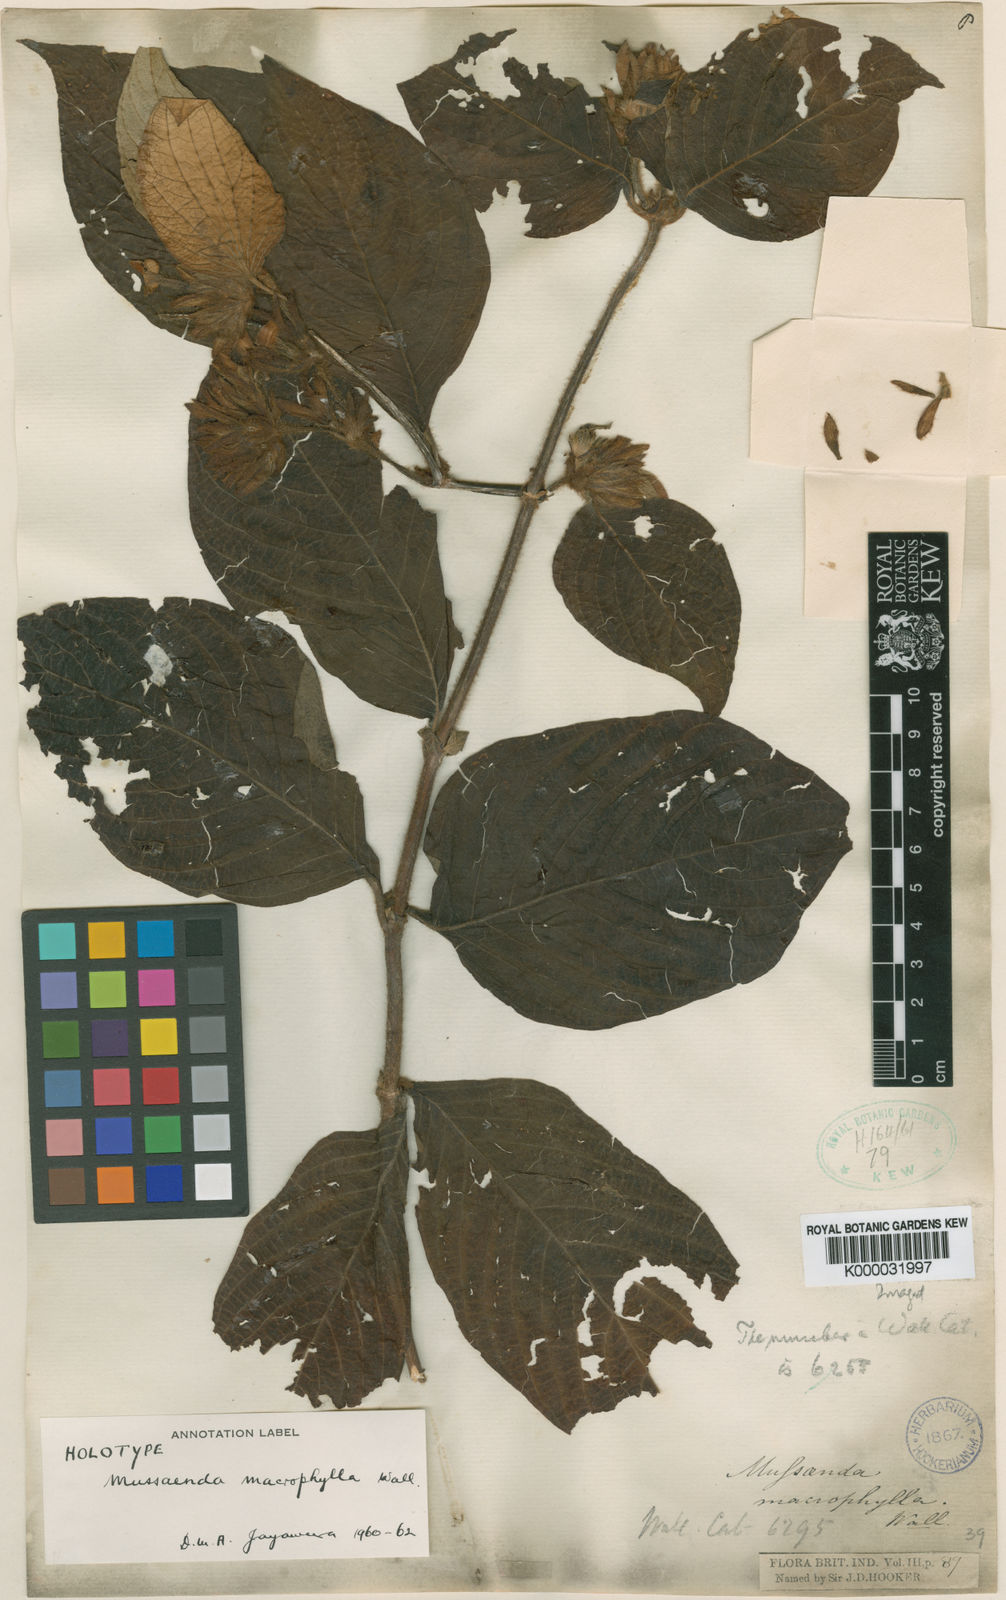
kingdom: Plantae
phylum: Tracheophyta
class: Magnoliopsida
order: Gentianales
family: Rubiaceae
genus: Mussaenda
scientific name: Mussaenda macrophylla
